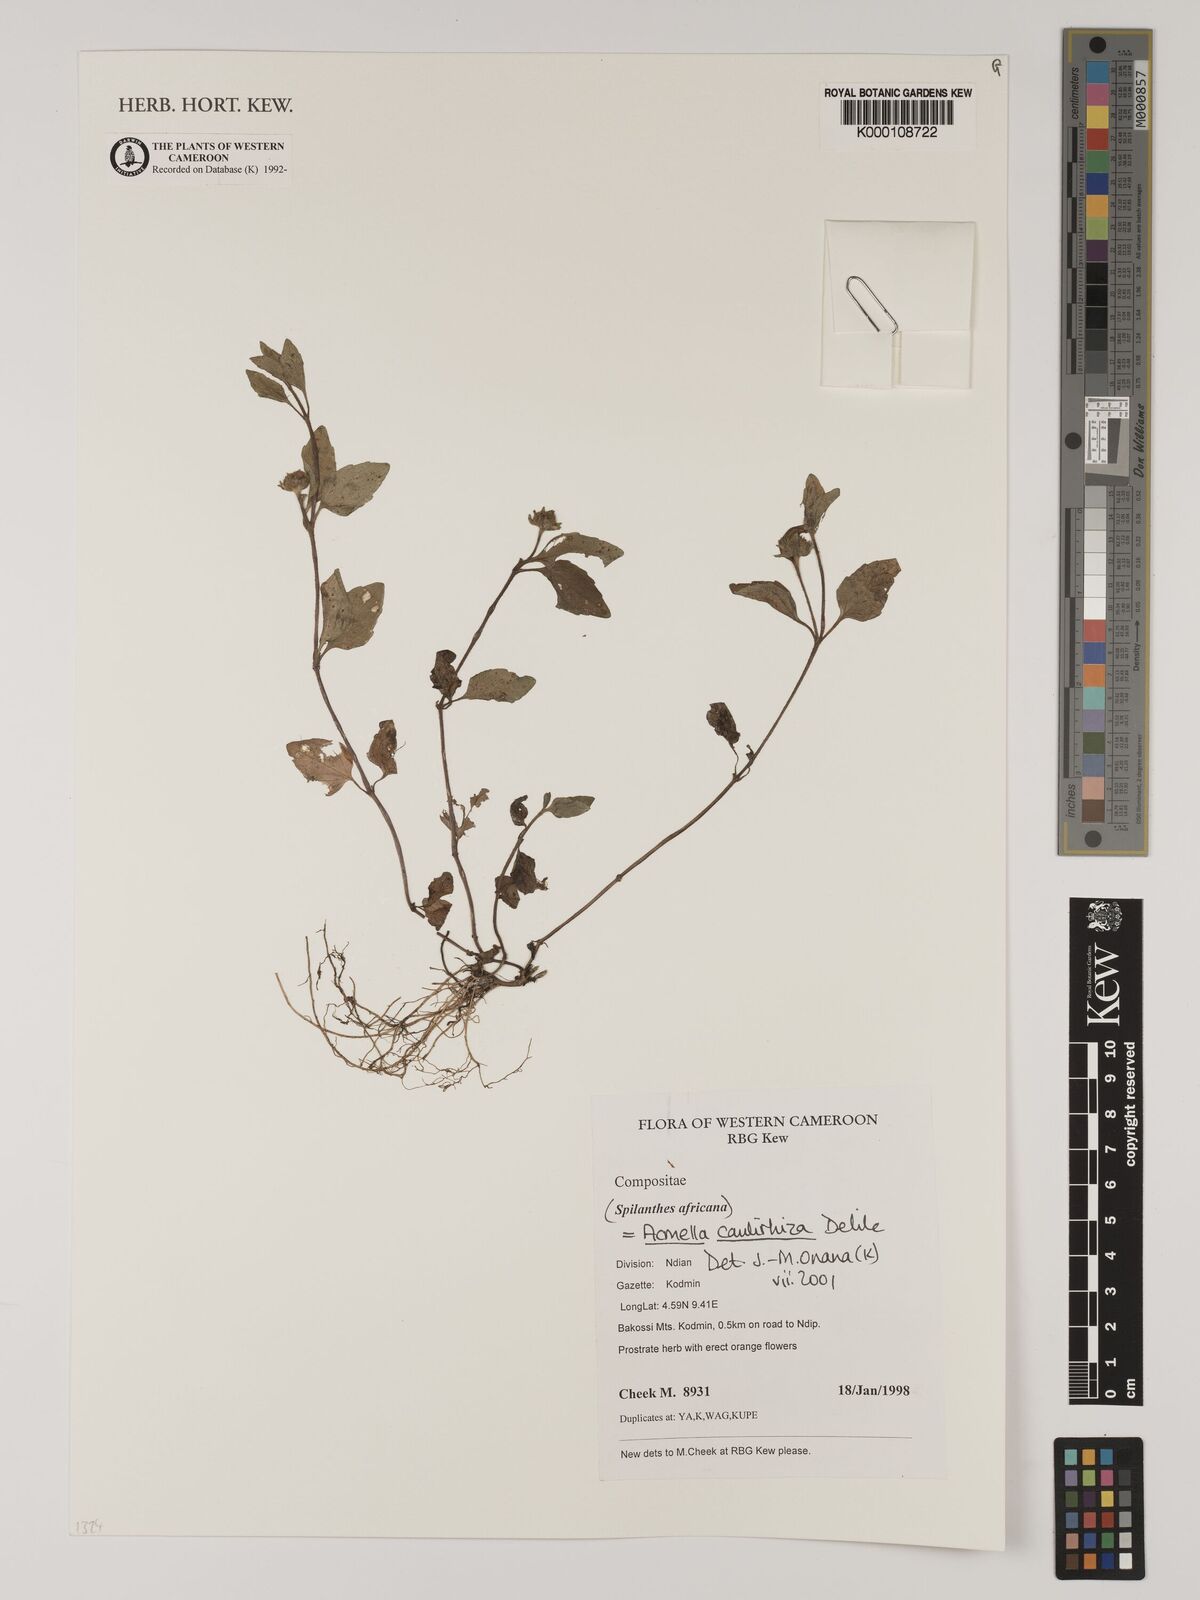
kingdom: Plantae
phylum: Tracheophyta
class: Magnoliopsida
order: Asterales
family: Asteraceae
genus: Acmella
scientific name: Acmella caulirhiza
